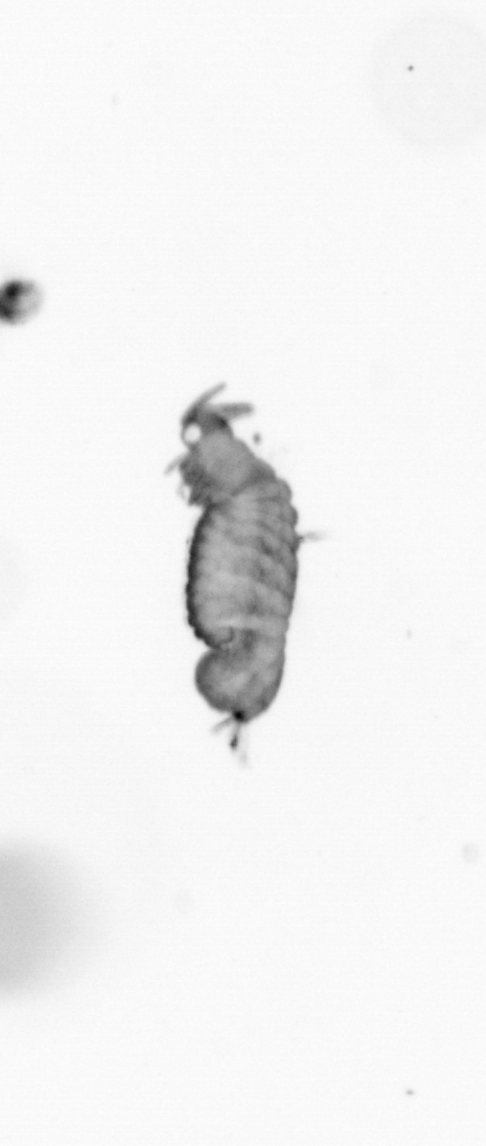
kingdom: Animalia
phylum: Annelida
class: Polychaeta
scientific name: Polychaeta
